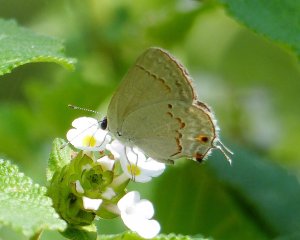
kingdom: Animalia
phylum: Arthropoda
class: Insecta
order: Lepidoptera
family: Lycaenidae
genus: Thecla
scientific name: Thecla rufofusca
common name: Red-crescent Scrub-Hairstreak
